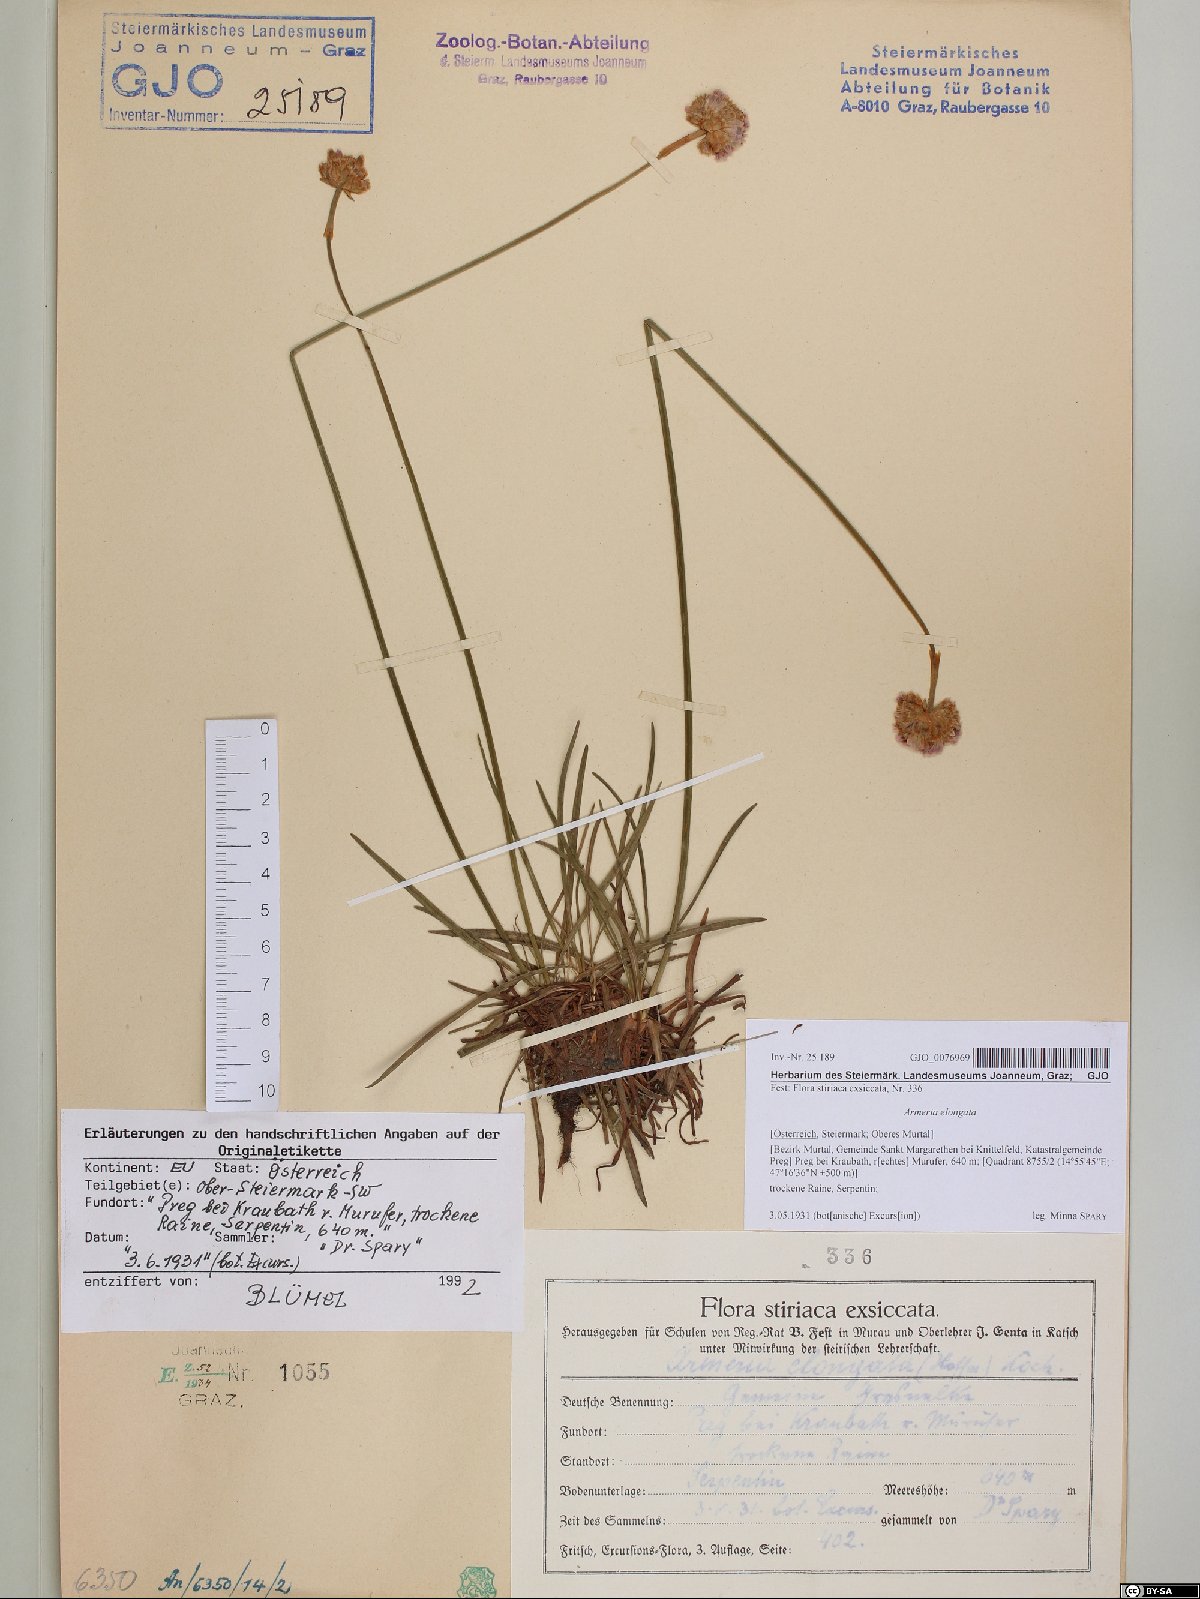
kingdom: Plantae
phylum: Tracheophyta
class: Magnoliopsida
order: Caryophyllales
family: Plumbaginaceae
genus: Armeria
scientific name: Armeria maritima
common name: Thrift
